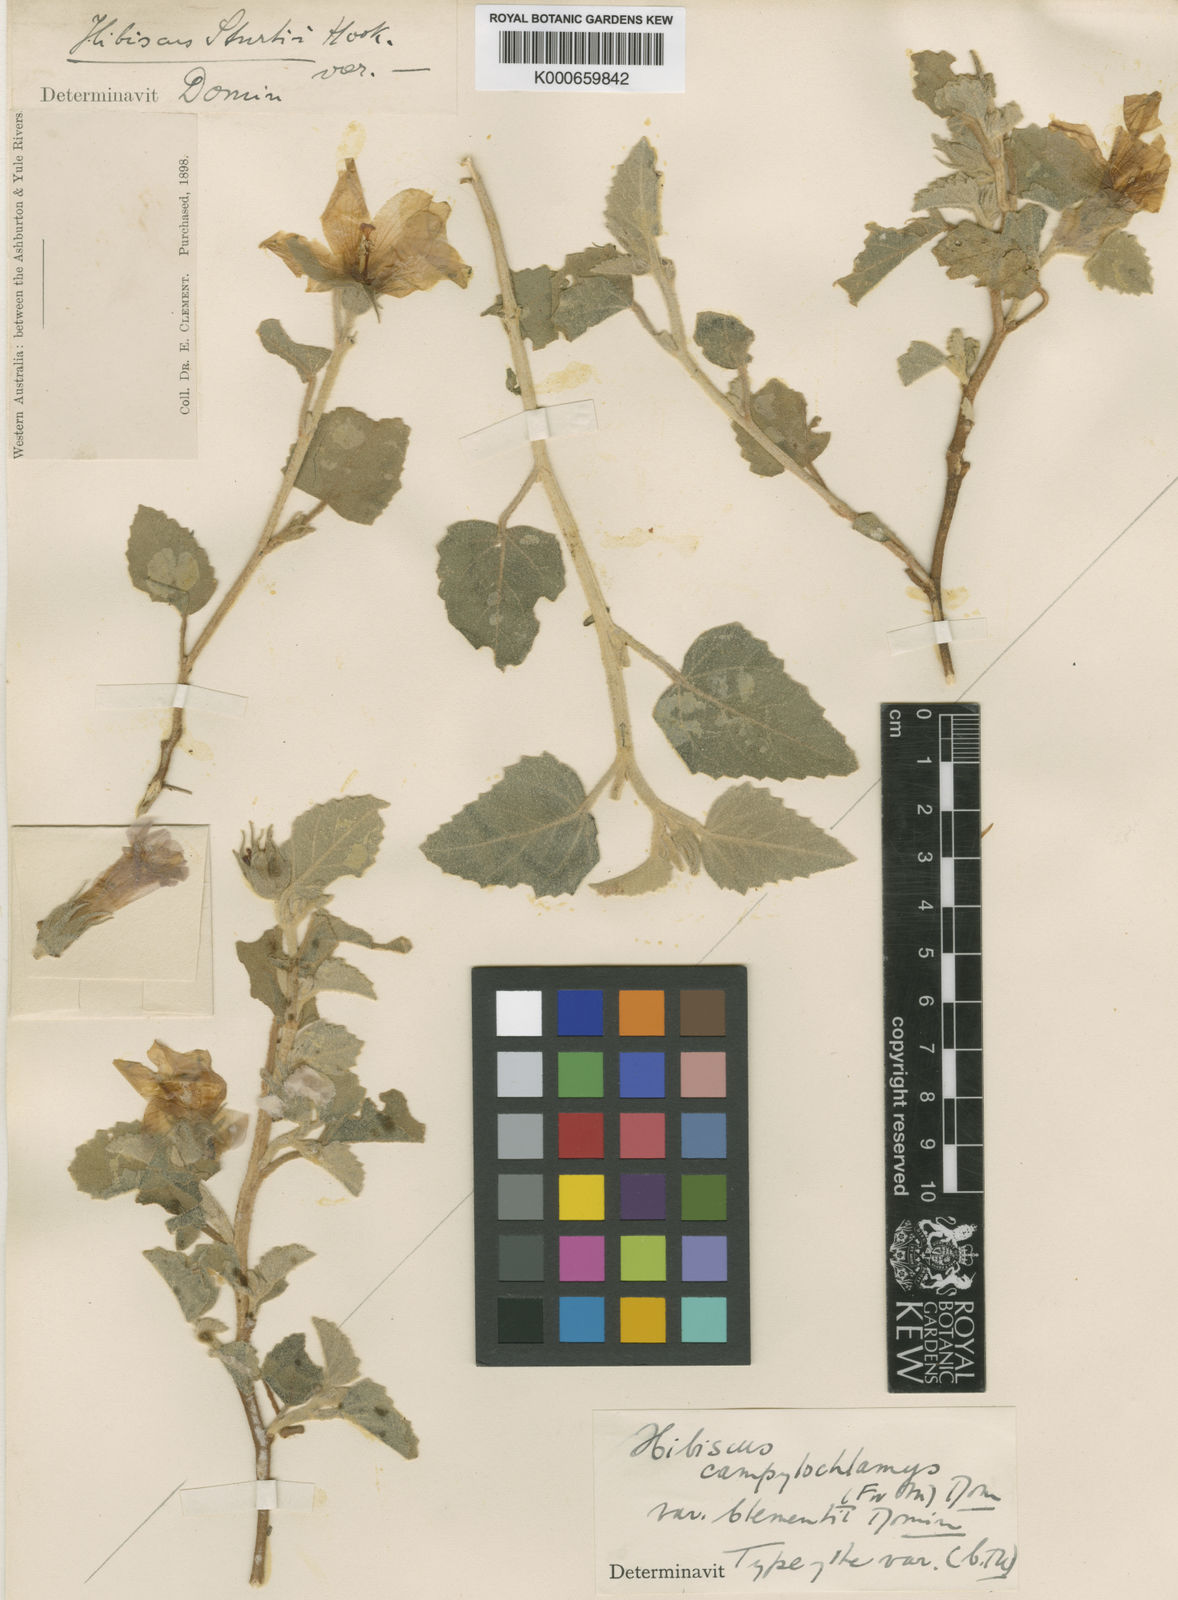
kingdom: Plantae
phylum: Tracheophyta
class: Magnoliopsida
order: Malvales
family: Malvaceae
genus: Hibiscus
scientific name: Hibiscus sturtii
